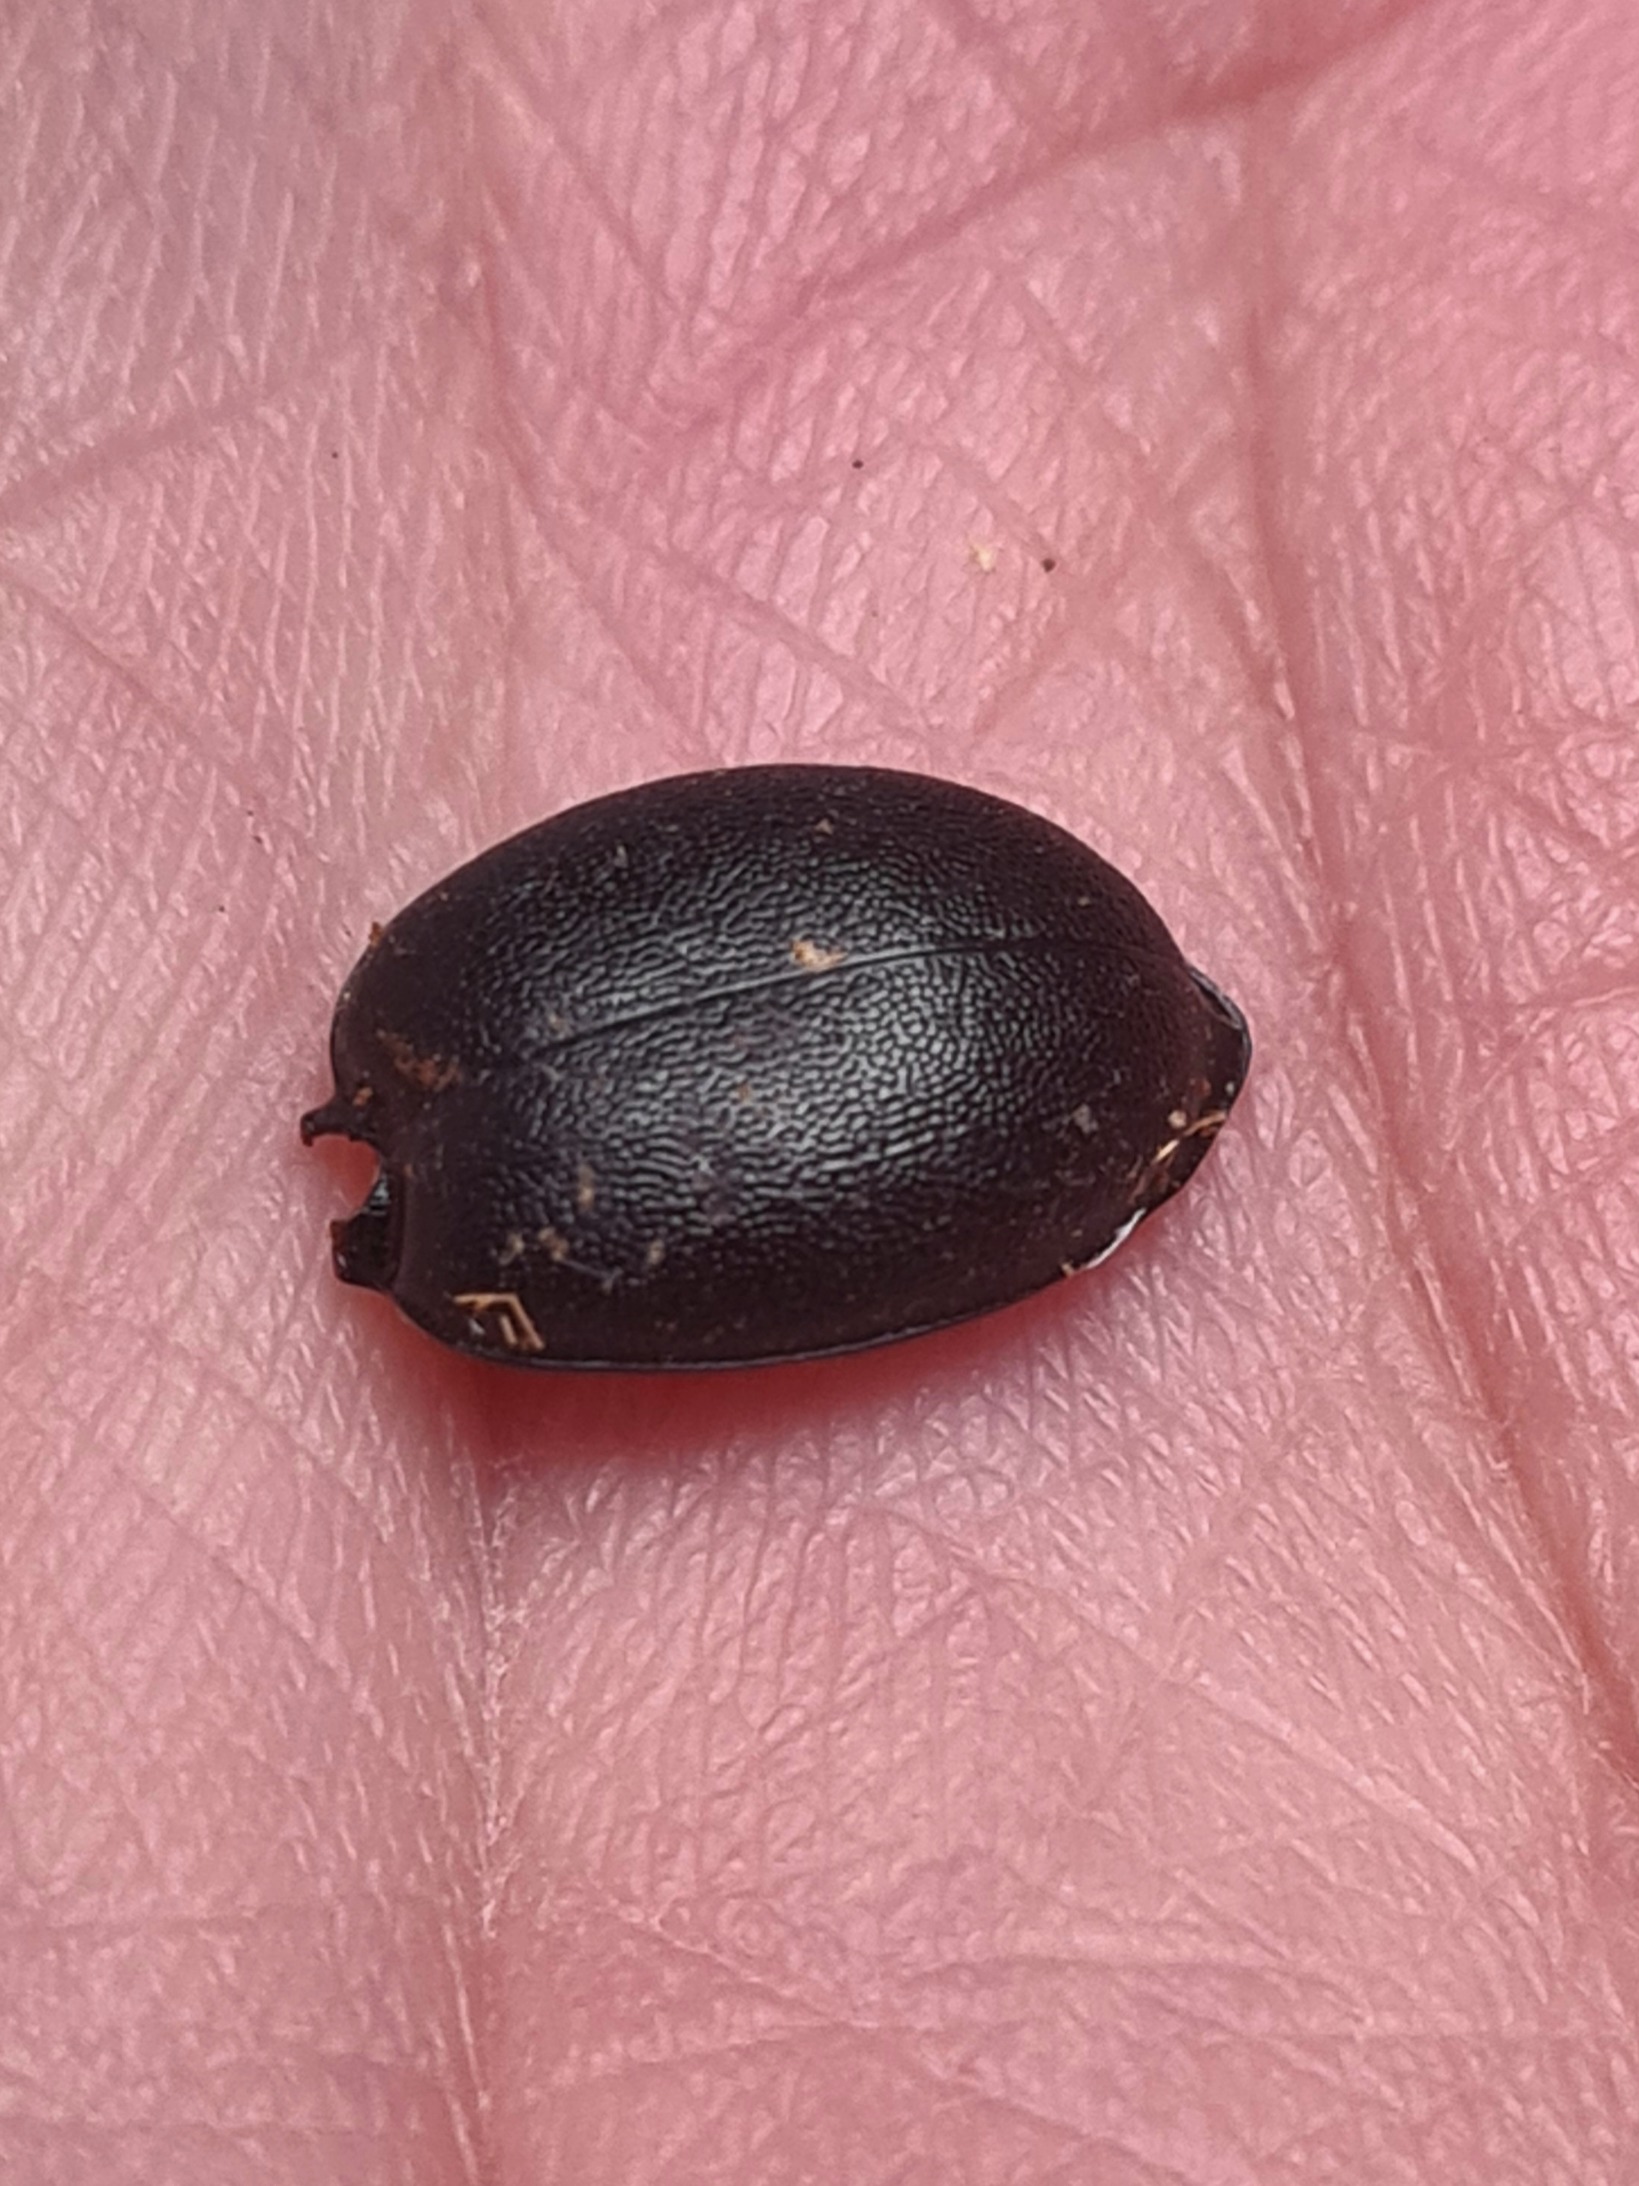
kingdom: Animalia
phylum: Arthropoda
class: Insecta
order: Coleoptera
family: Carabidae
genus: Cychrus
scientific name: Cychrus caraboides
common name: Sneglerøver
